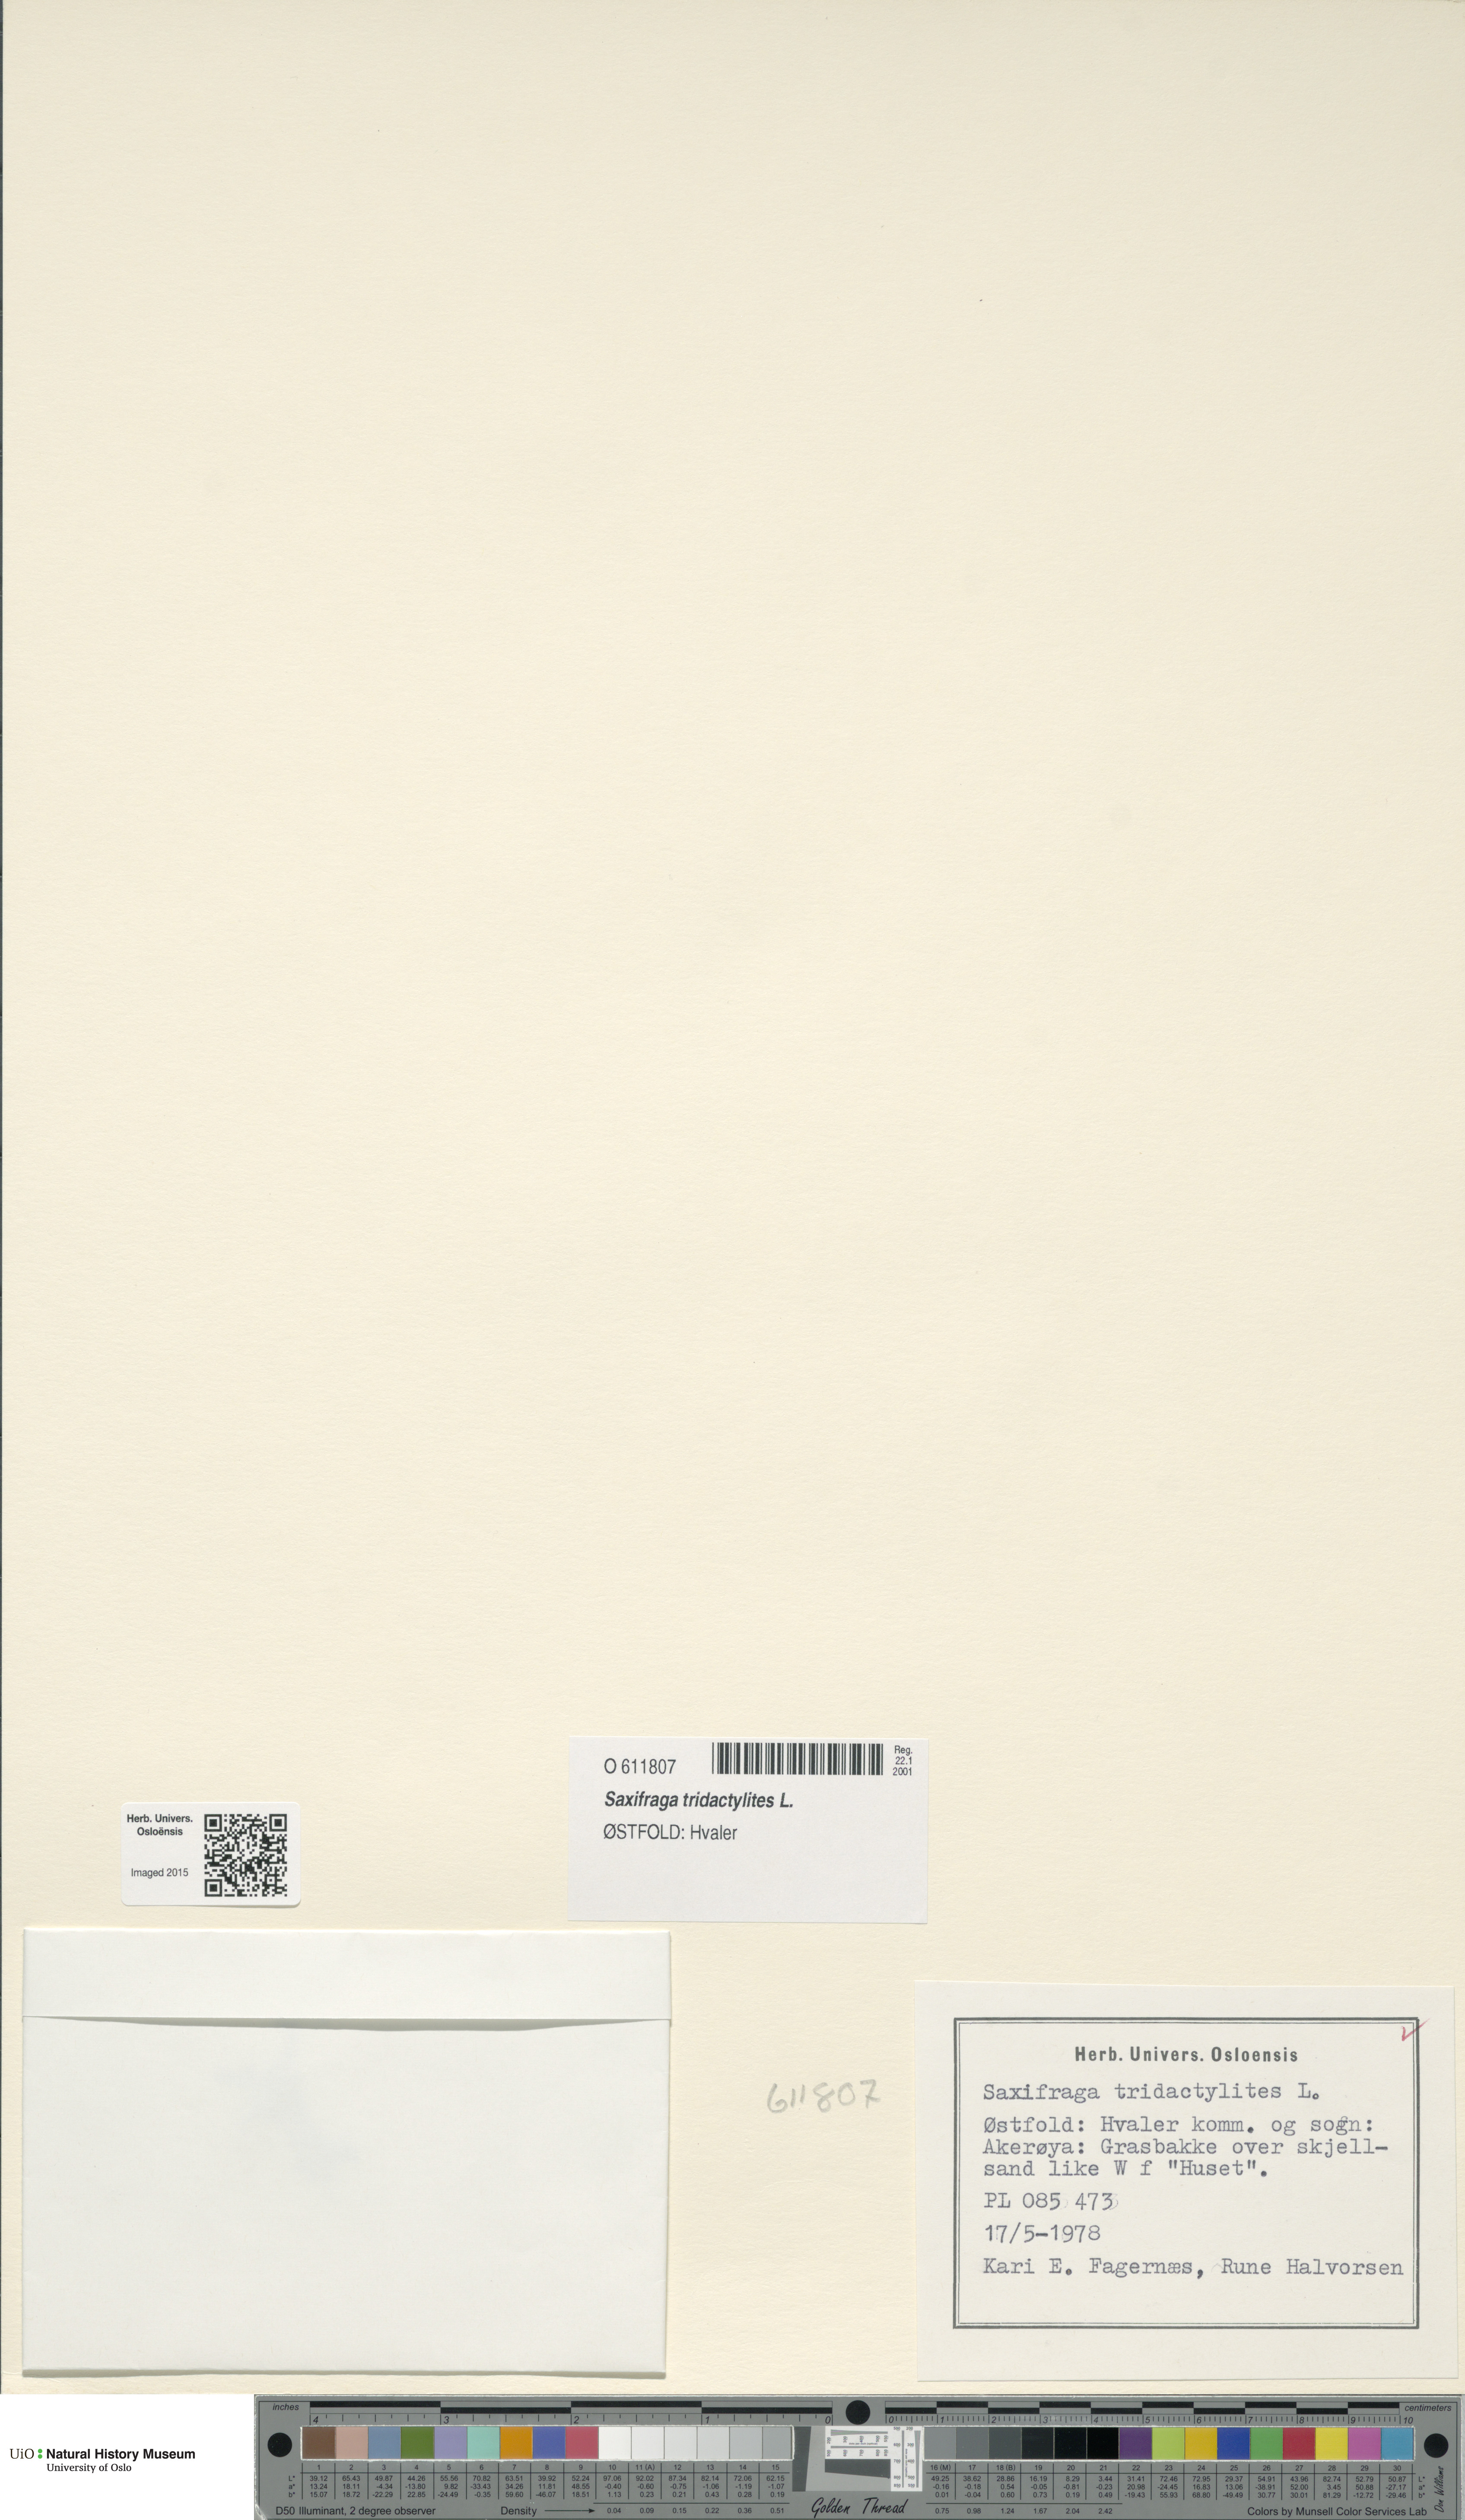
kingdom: Plantae
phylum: Tracheophyta
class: Magnoliopsida
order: Saxifragales
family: Saxifragaceae
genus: Saxifraga
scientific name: Saxifraga tridactylites
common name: Rue-leaved saxifrage
